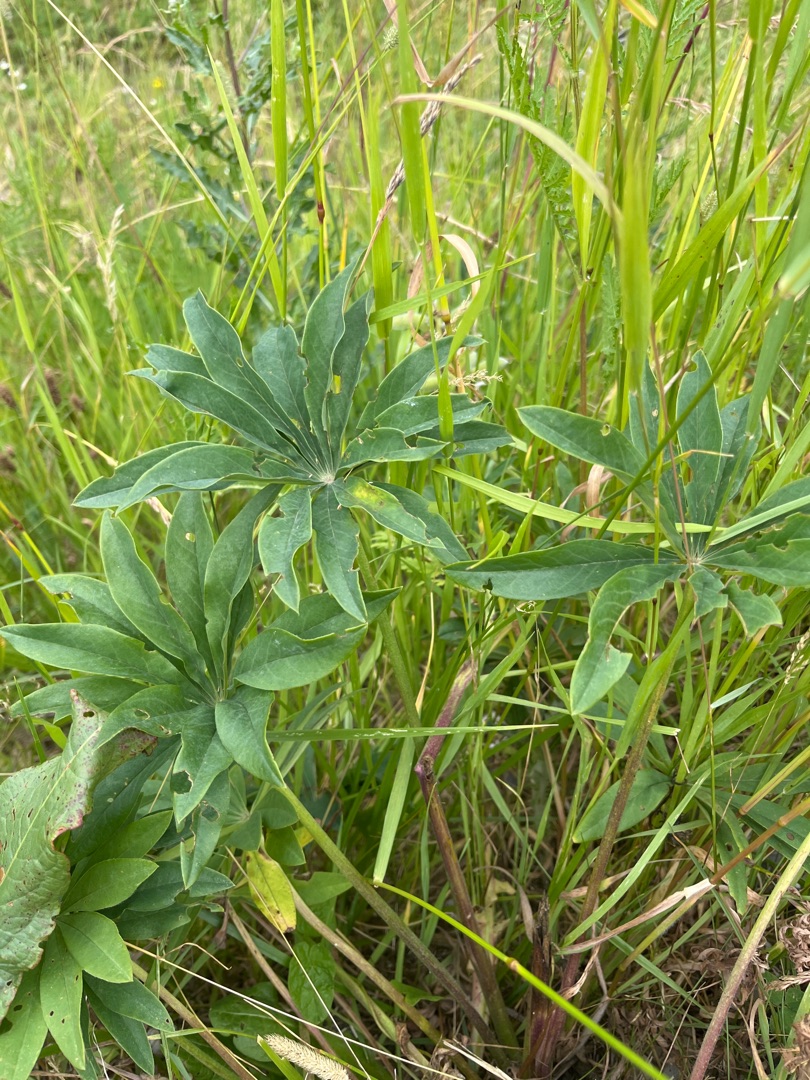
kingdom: Plantae
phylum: Tracheophyta
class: Magnoliopsida
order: Fabales
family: Fabaceae
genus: Lupinus
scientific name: Lupinus polyphyllus
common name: Mangebladet lupin
